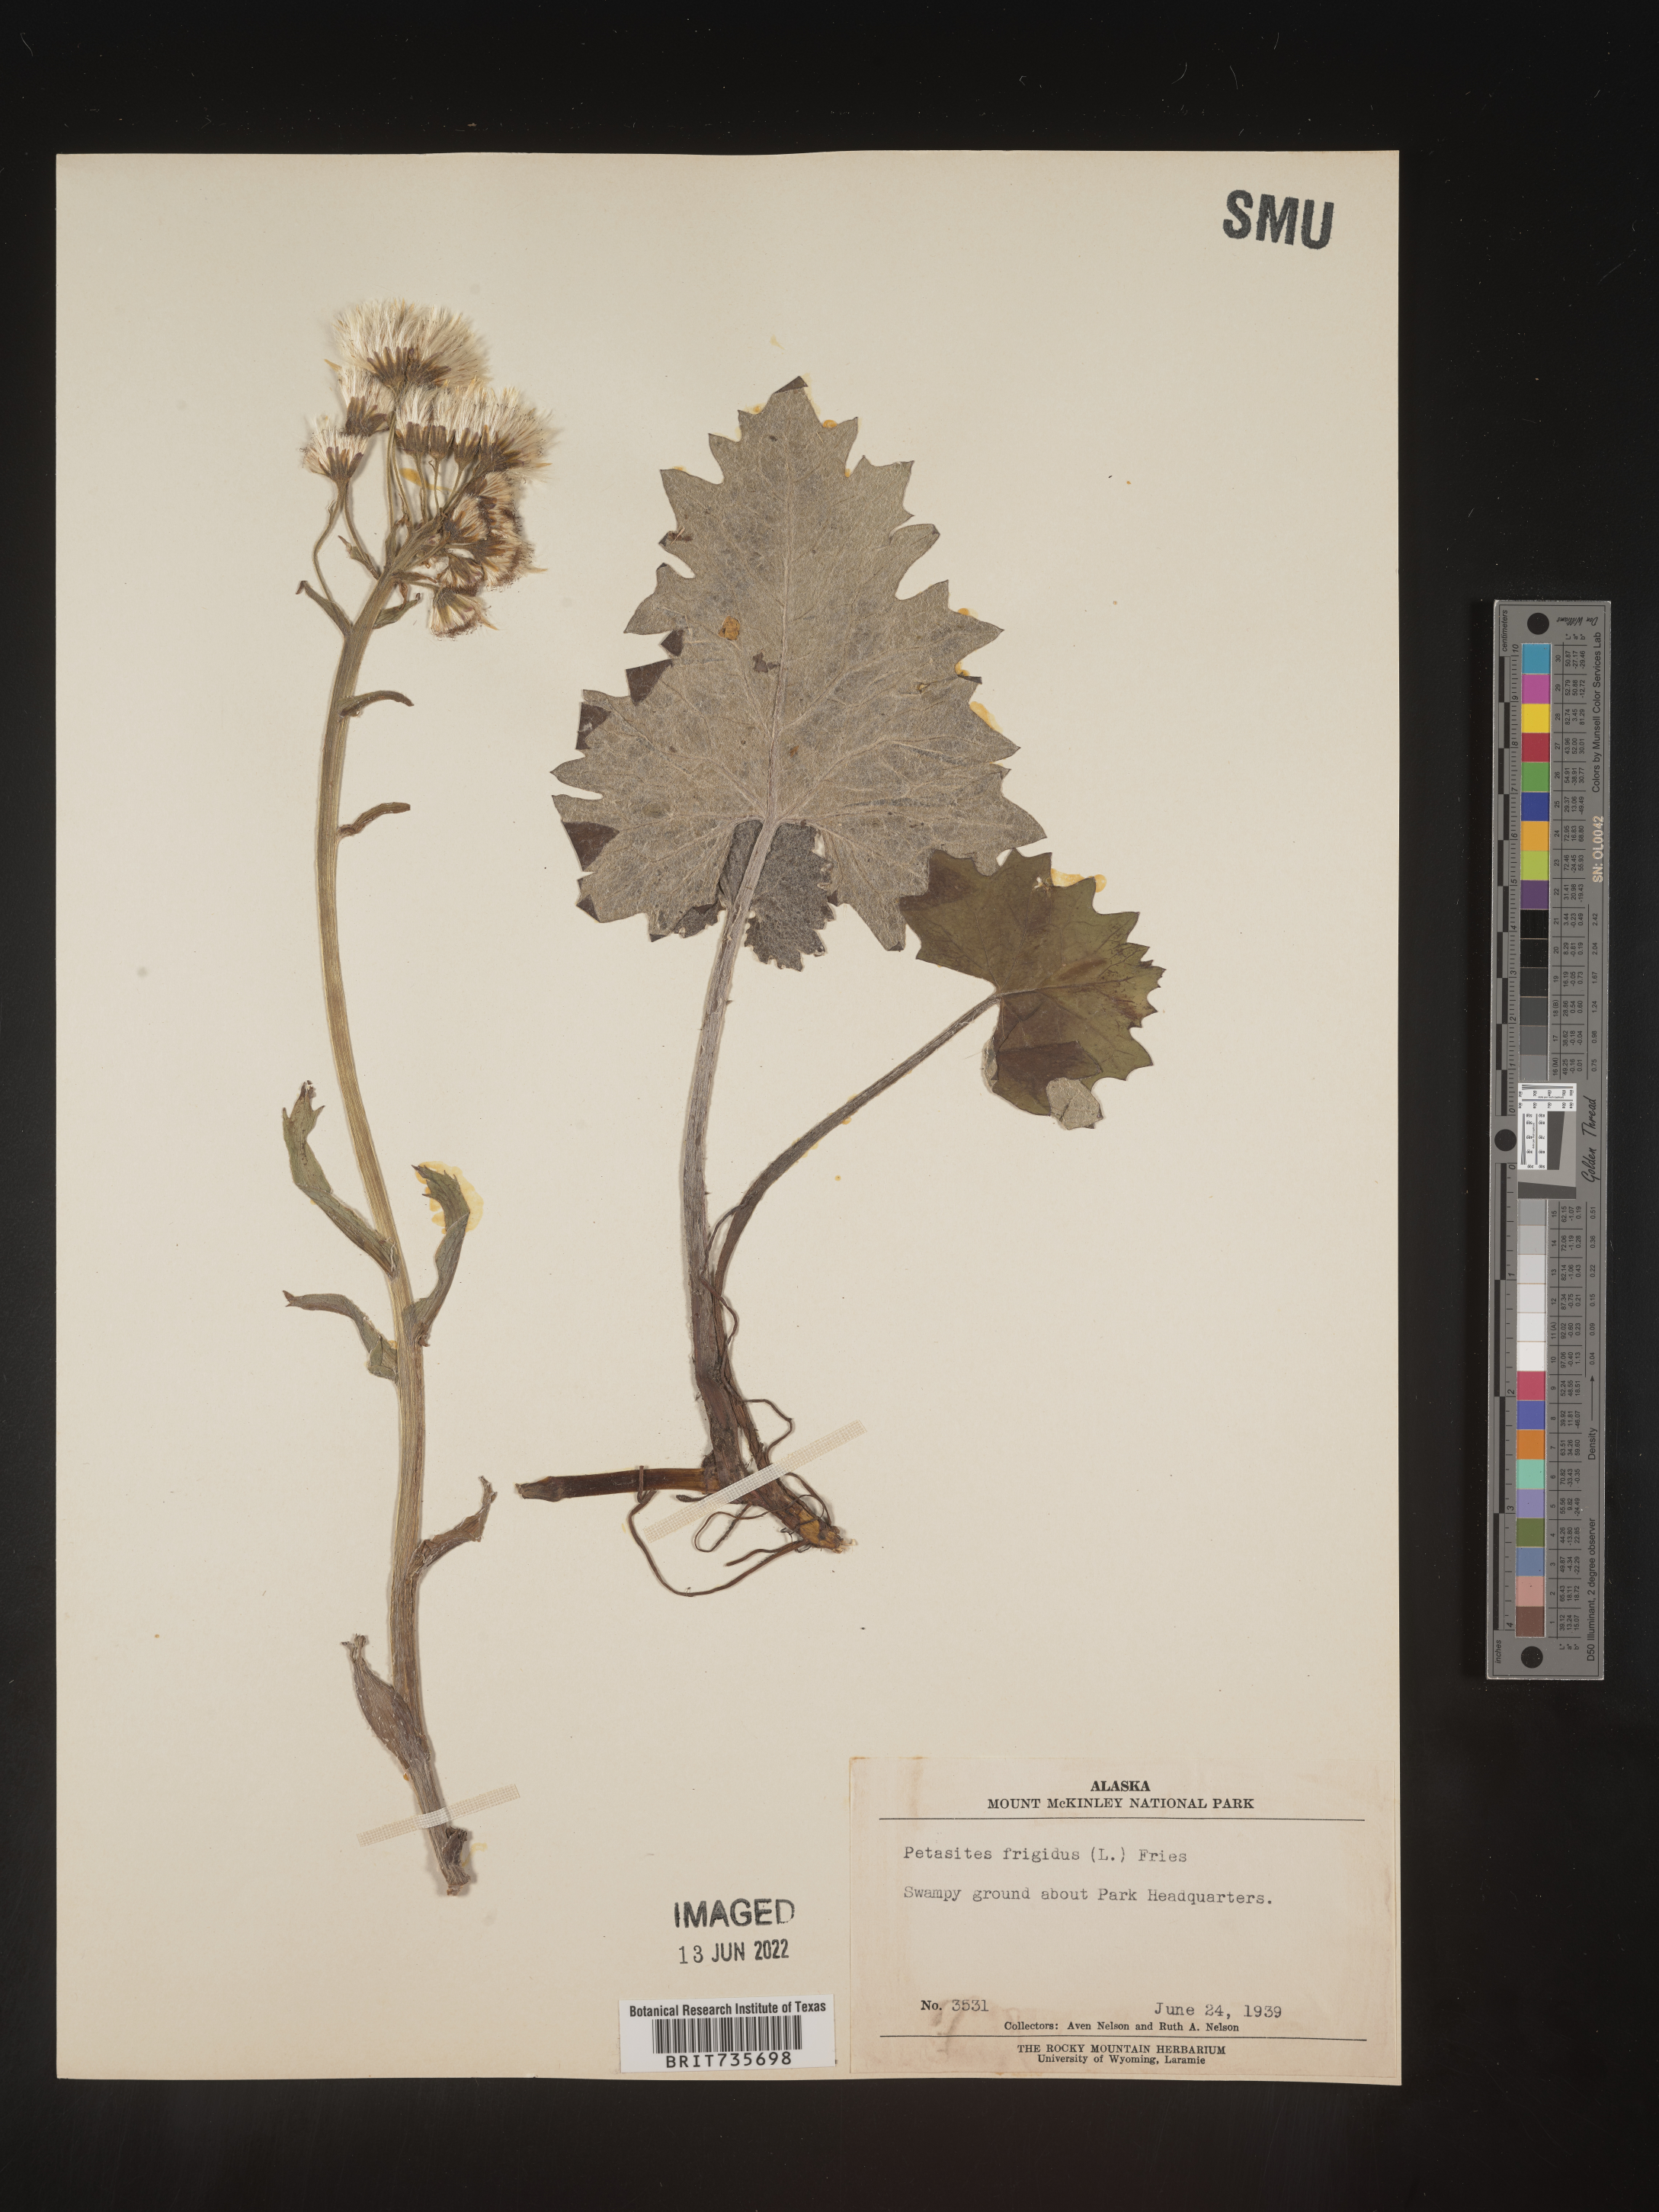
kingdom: Plantae
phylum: Tracheophyta
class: Magnoliopsida
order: Asterales
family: Asteraceae
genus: Petasites
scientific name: Petasites frigidus
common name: Arctic butterbur
